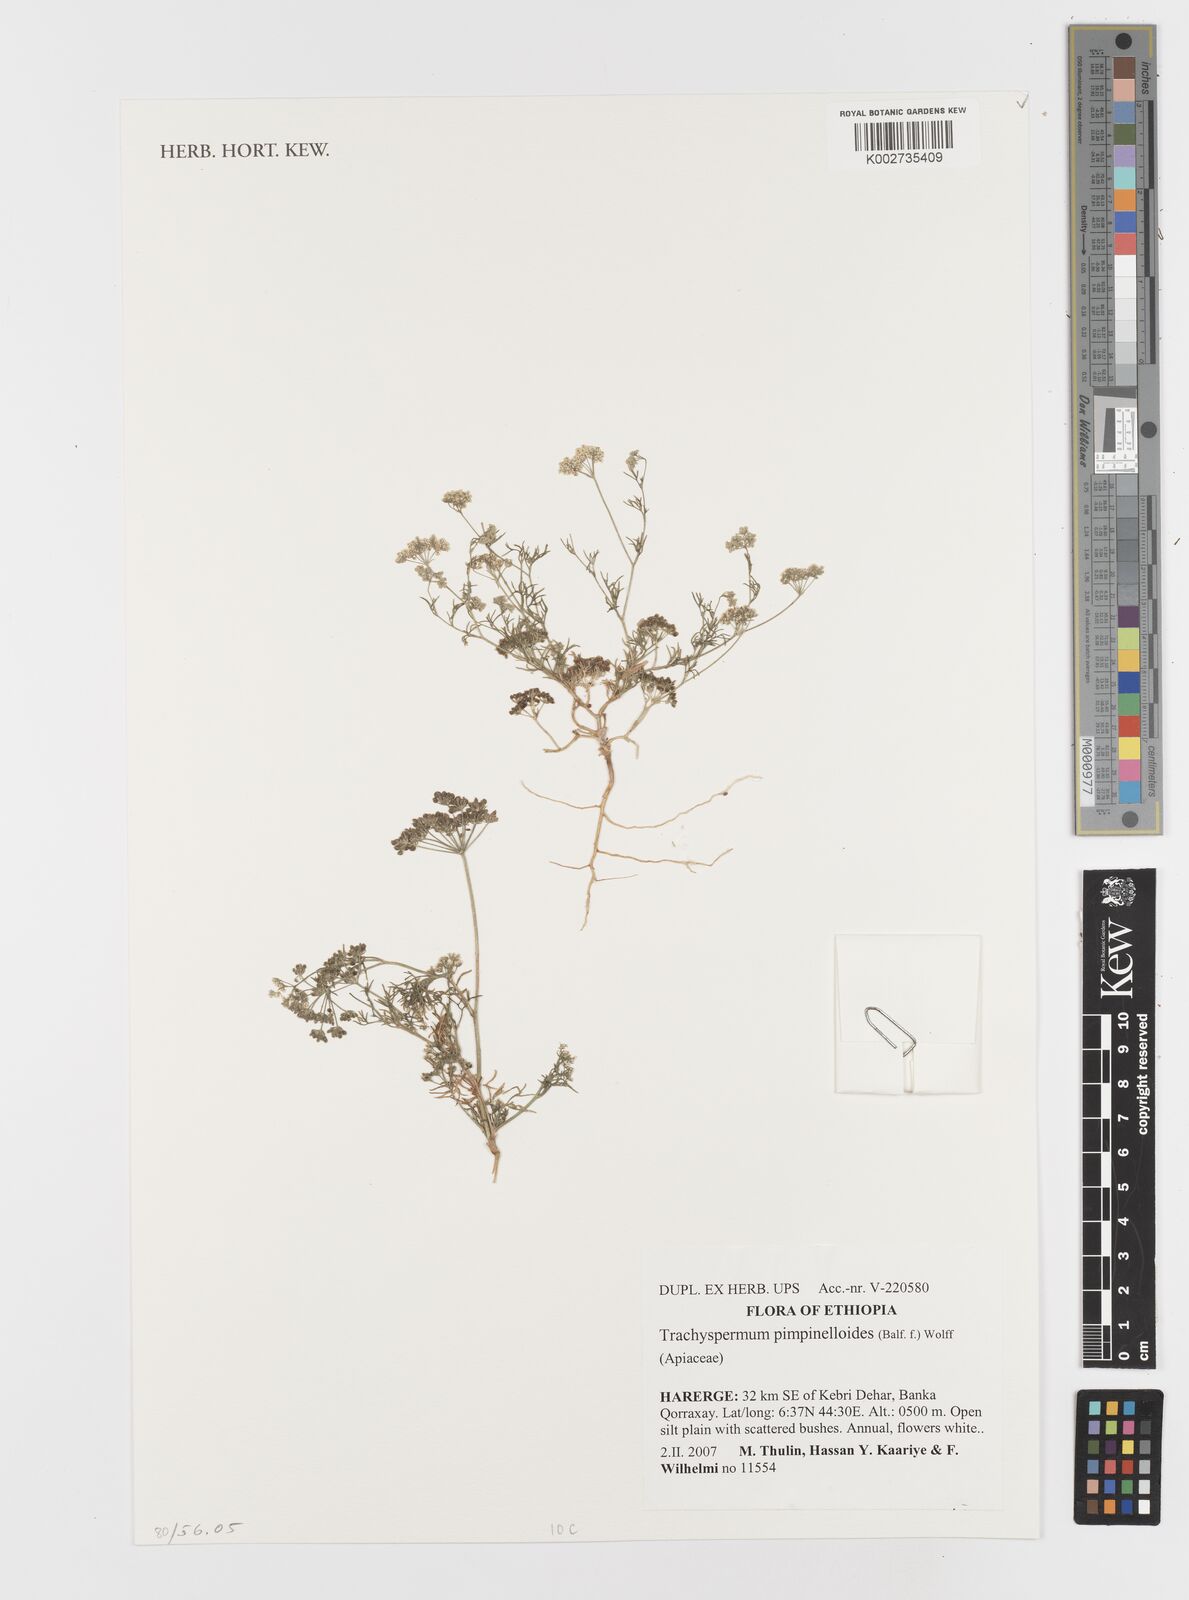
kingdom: Plantae
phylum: Tracheophyta
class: Magnoliopsida
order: Apiales
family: Apiaceae
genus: Trachyspermum
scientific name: Trachyspermum pimpinelloides
